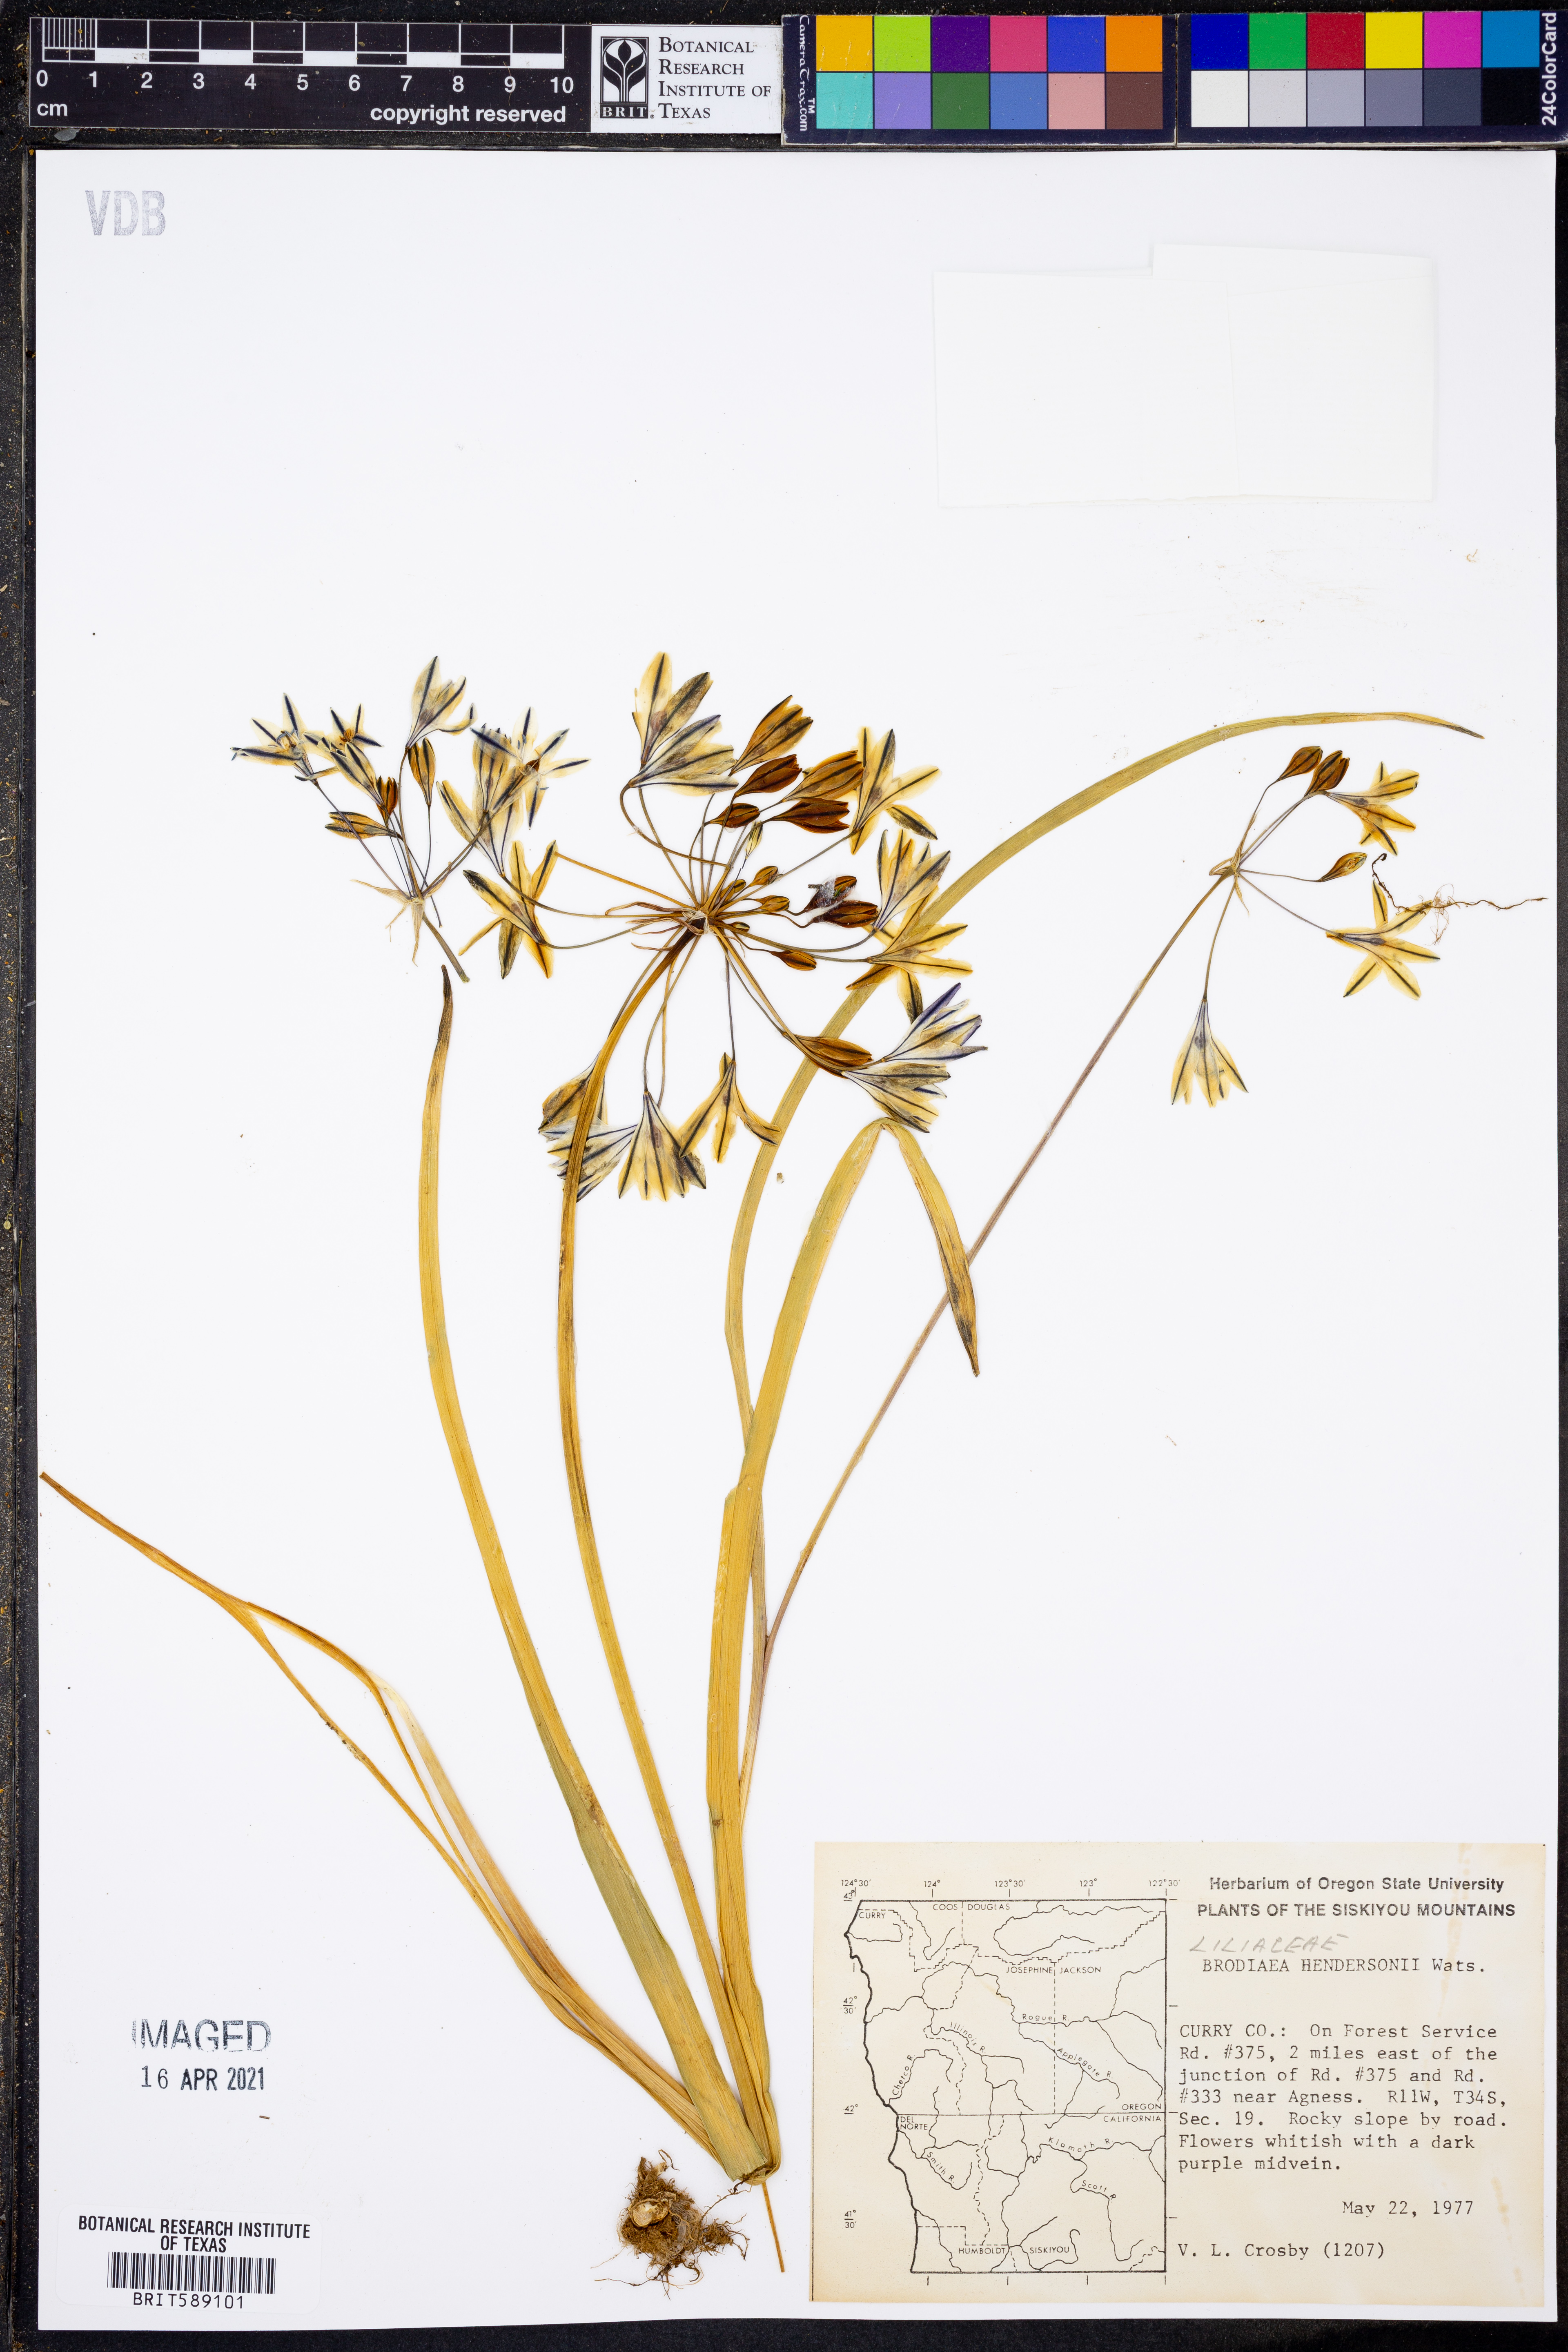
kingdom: Plantae
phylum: Tracheophyta
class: Liliopsida
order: Asparagales
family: Asparagaceae
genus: Triteleia
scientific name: Triteleia hendersonii
